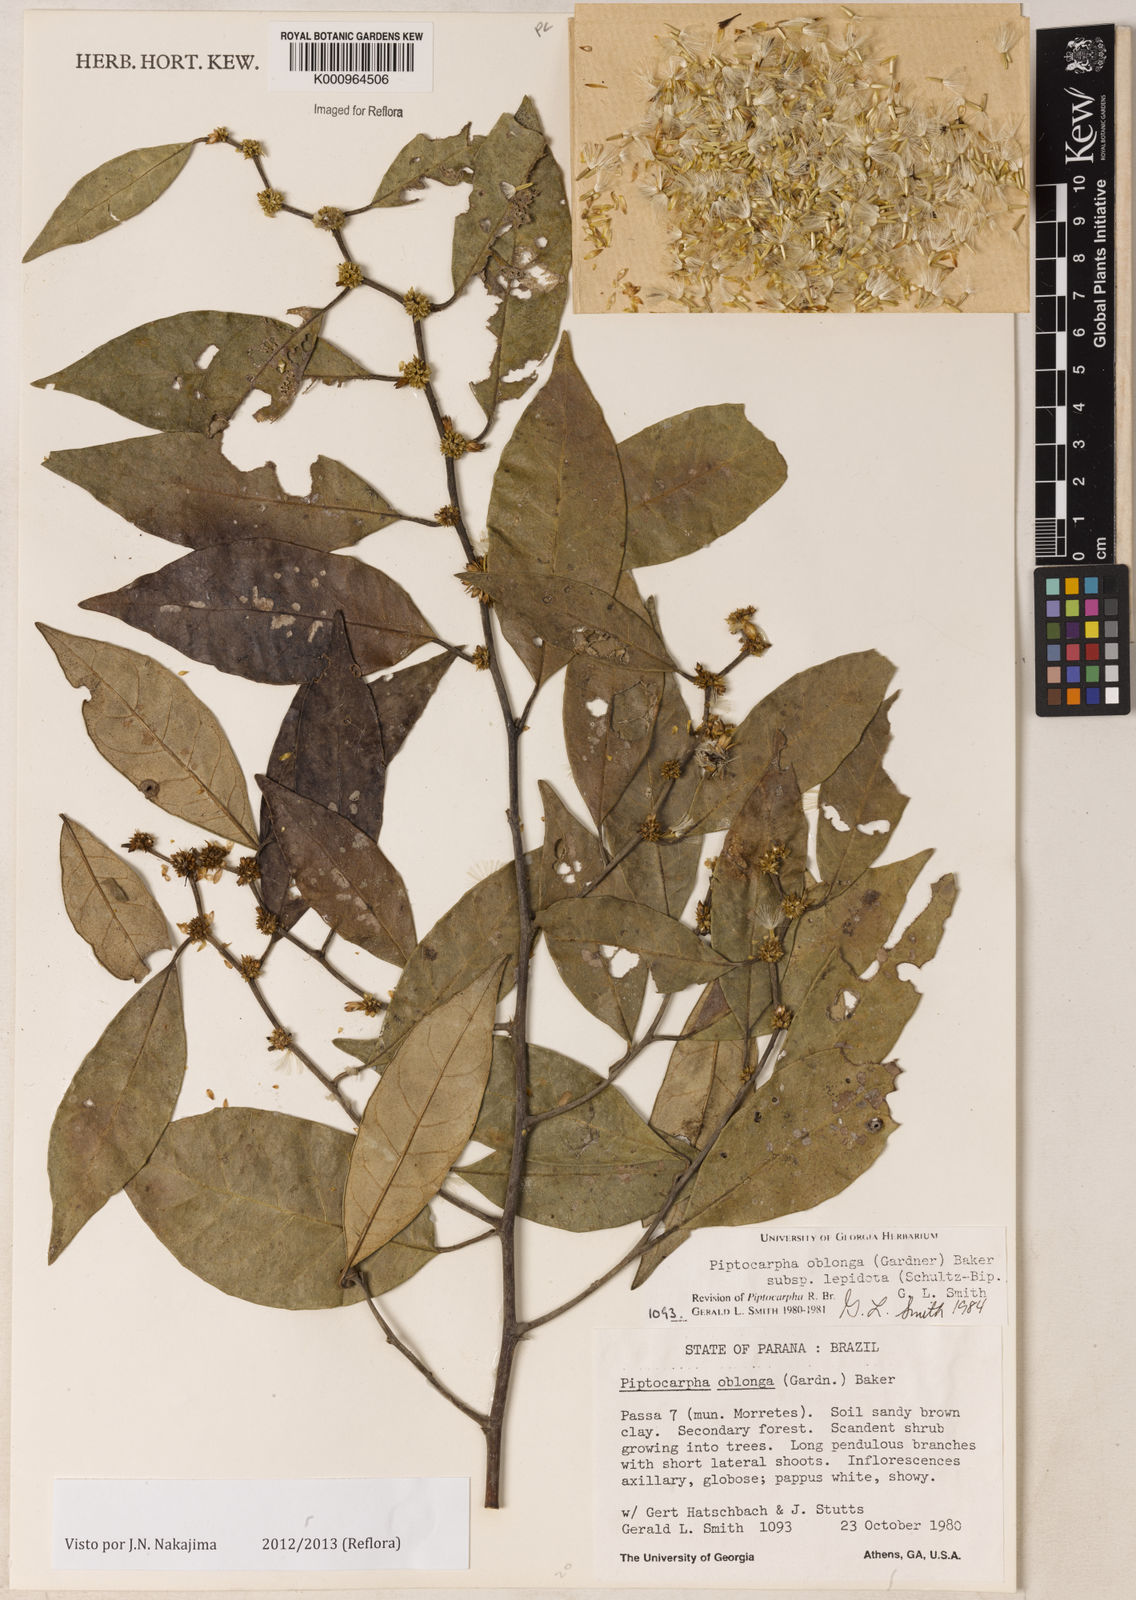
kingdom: Plantae
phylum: Tracheophyta
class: Magnoliopsida
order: Asterales
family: Asteraceae
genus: Piptocarpha
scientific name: Piptocarpha oblonga
